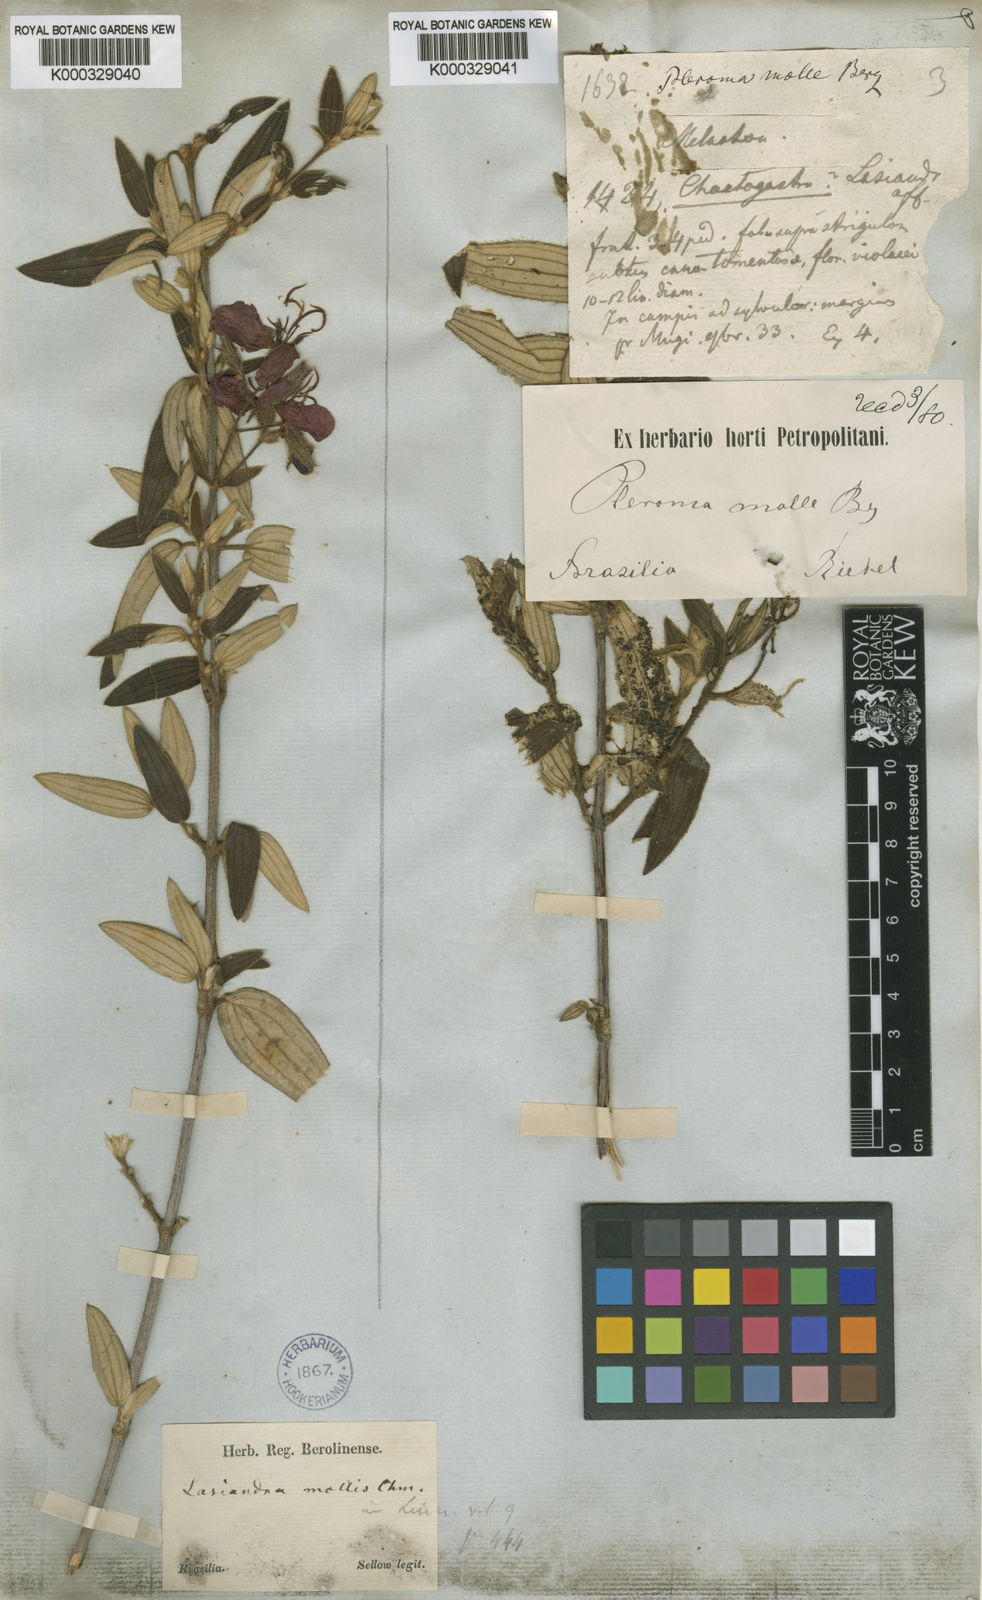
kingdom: Plantae
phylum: Tracheophyta
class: Magnoliopsida
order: Myrtales
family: Melastomataceae
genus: Pleroma
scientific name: Pleroma molle
